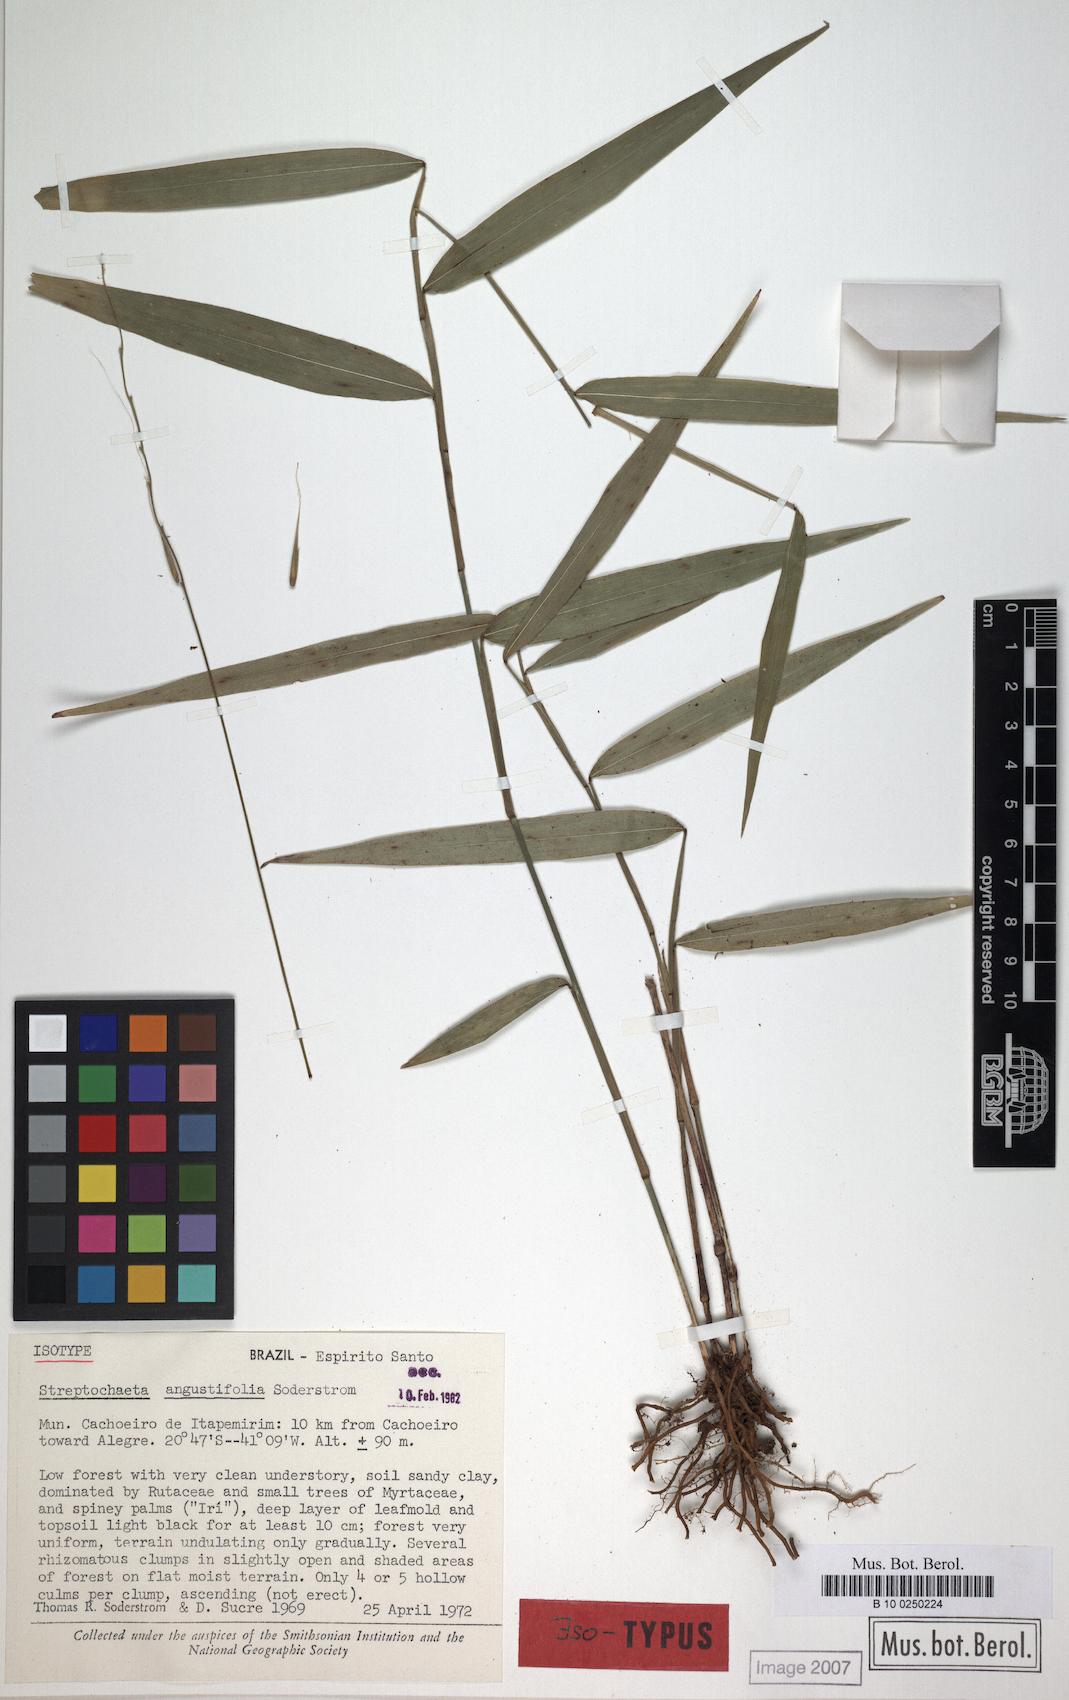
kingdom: Plantae
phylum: Tracheophyta
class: Liliopsida
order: Poales
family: Poaceae
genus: Streptochaeta
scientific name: Streptochaeta angustifolia
